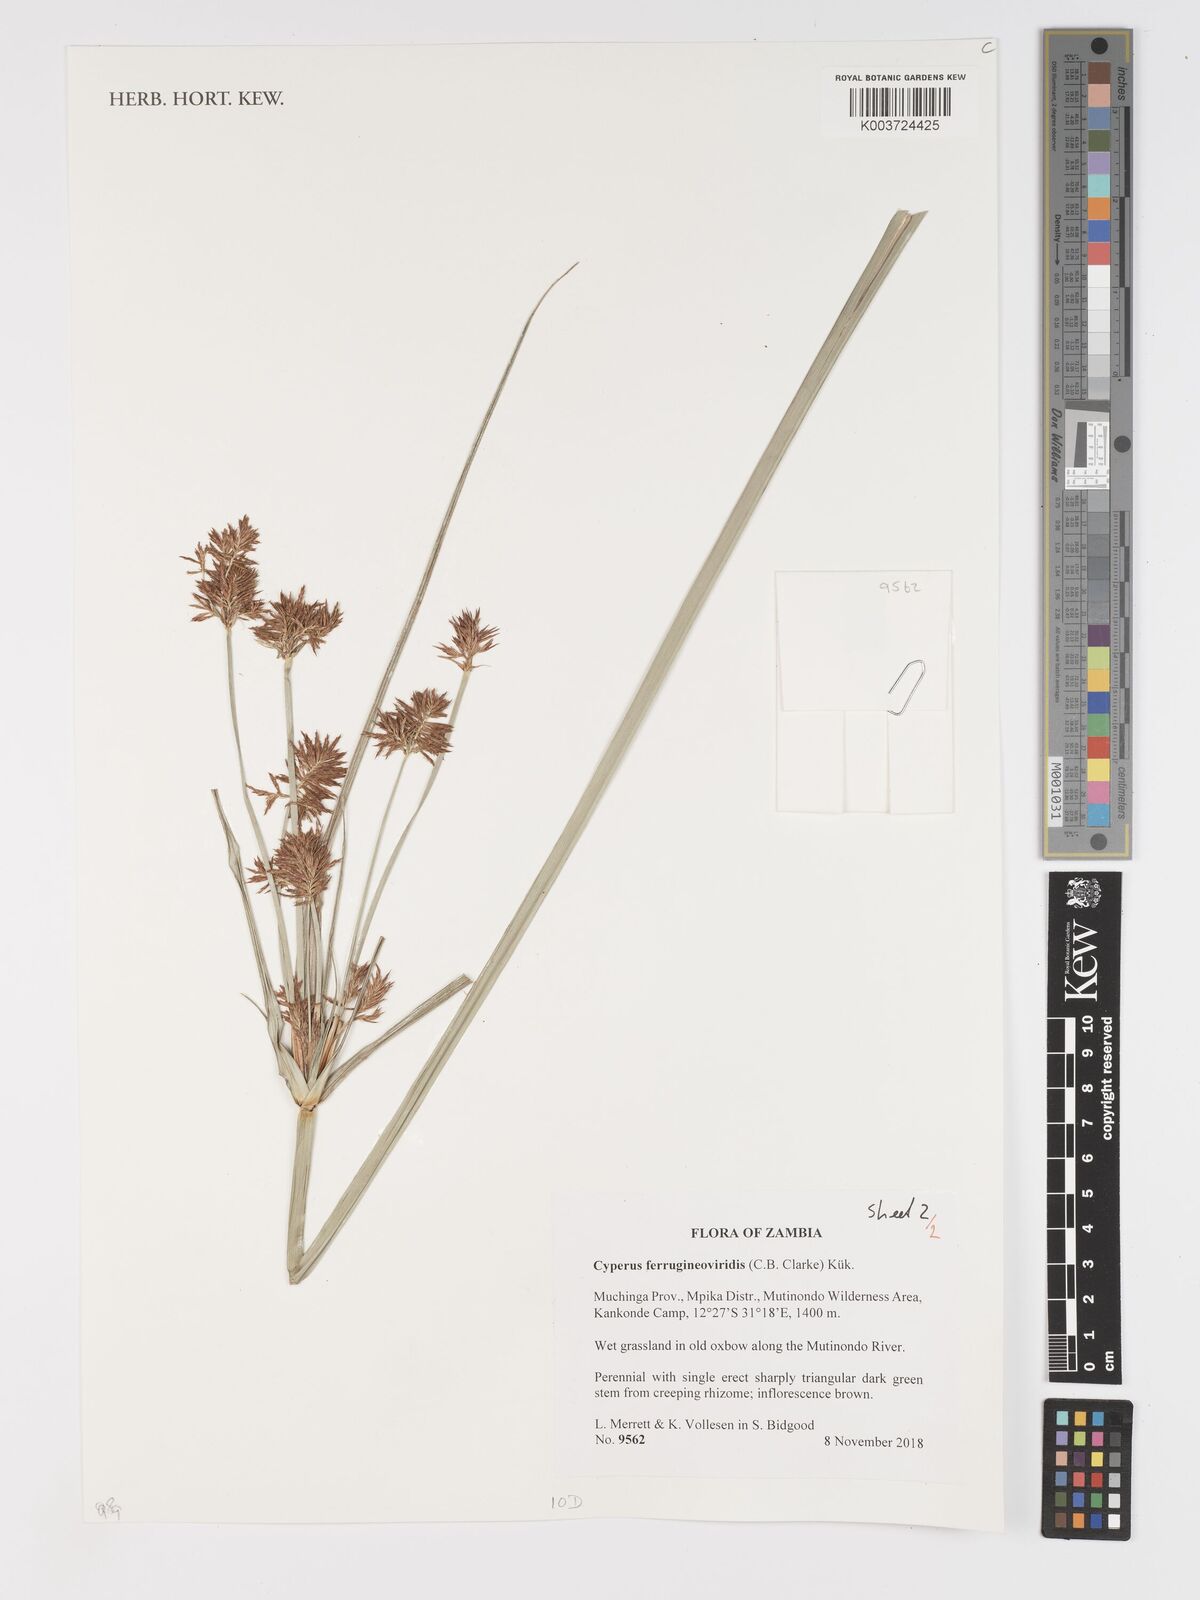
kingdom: Plantae
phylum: Tracheophyta
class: Liliopsida
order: Poales
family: Cyperaceae
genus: Cyperus
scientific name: Cyperus ferrugineoviridis
